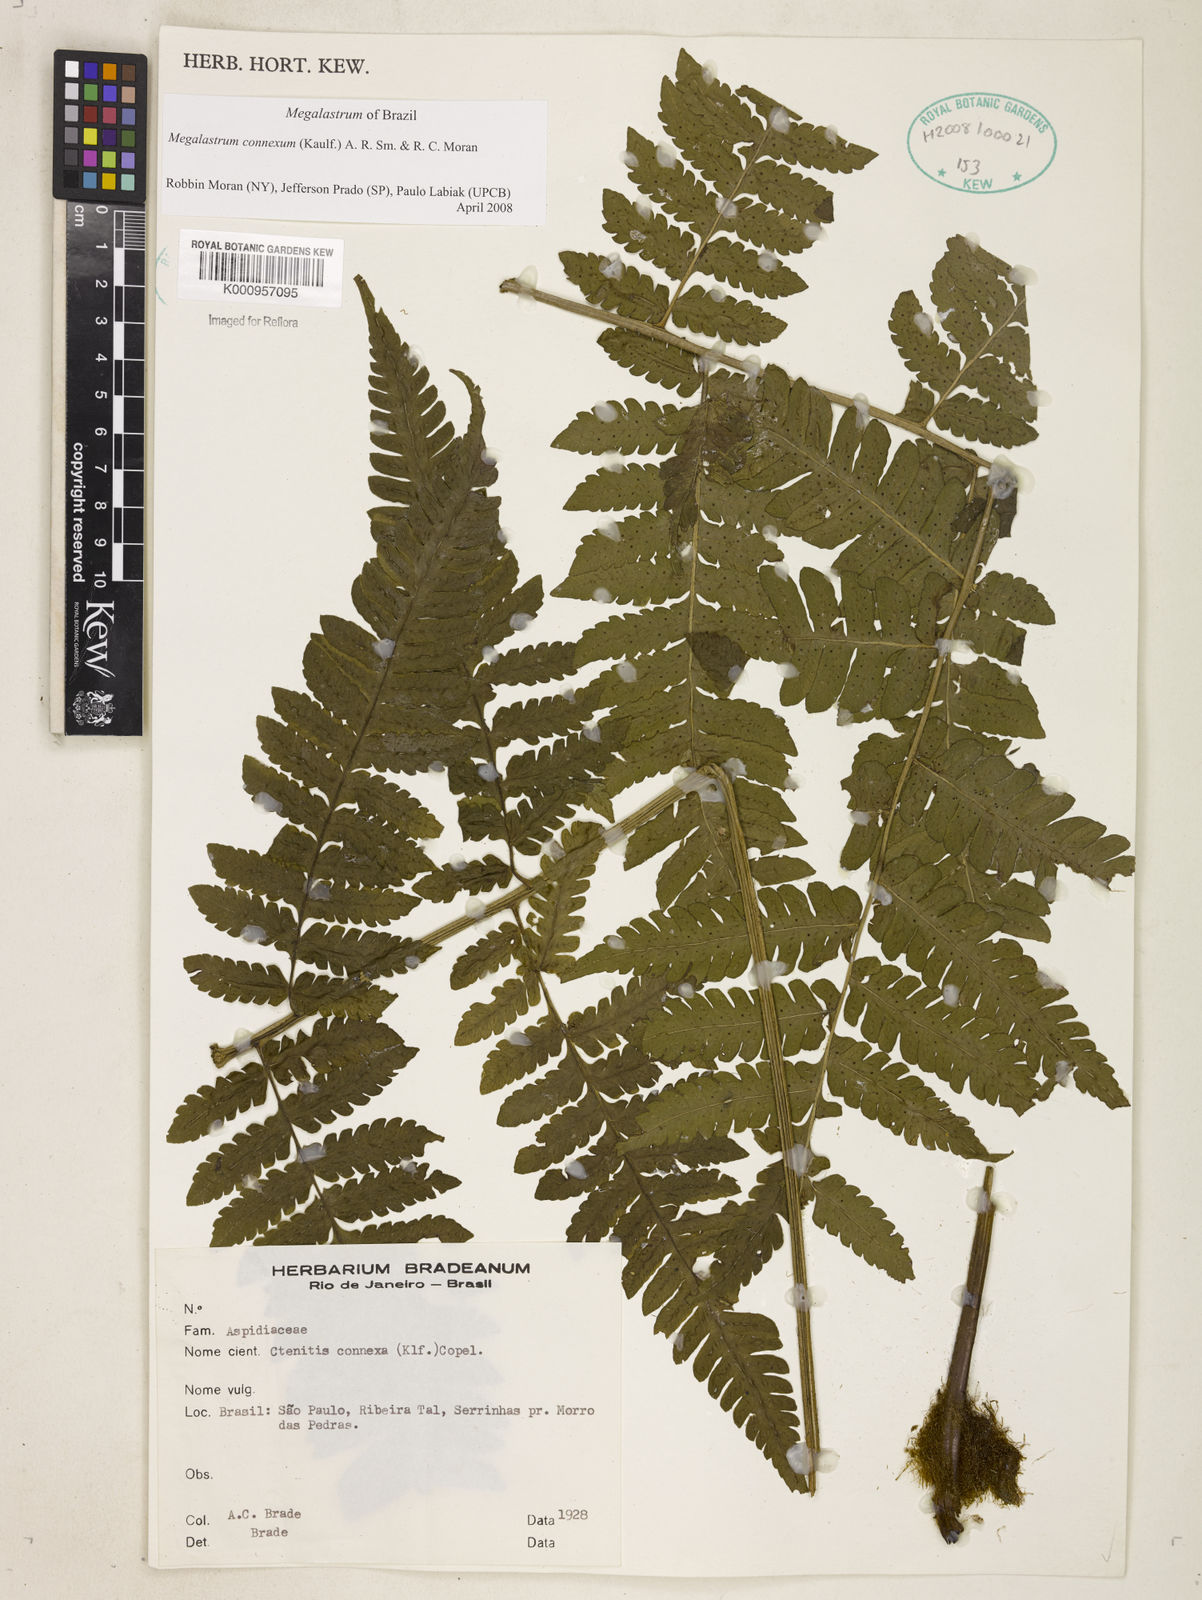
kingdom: Plantae
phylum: Tracheophyta
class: Polypodiopsida
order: Polypodiales
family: Dryopteridaceae
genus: Megalastrum
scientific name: Megalastrum connexum
